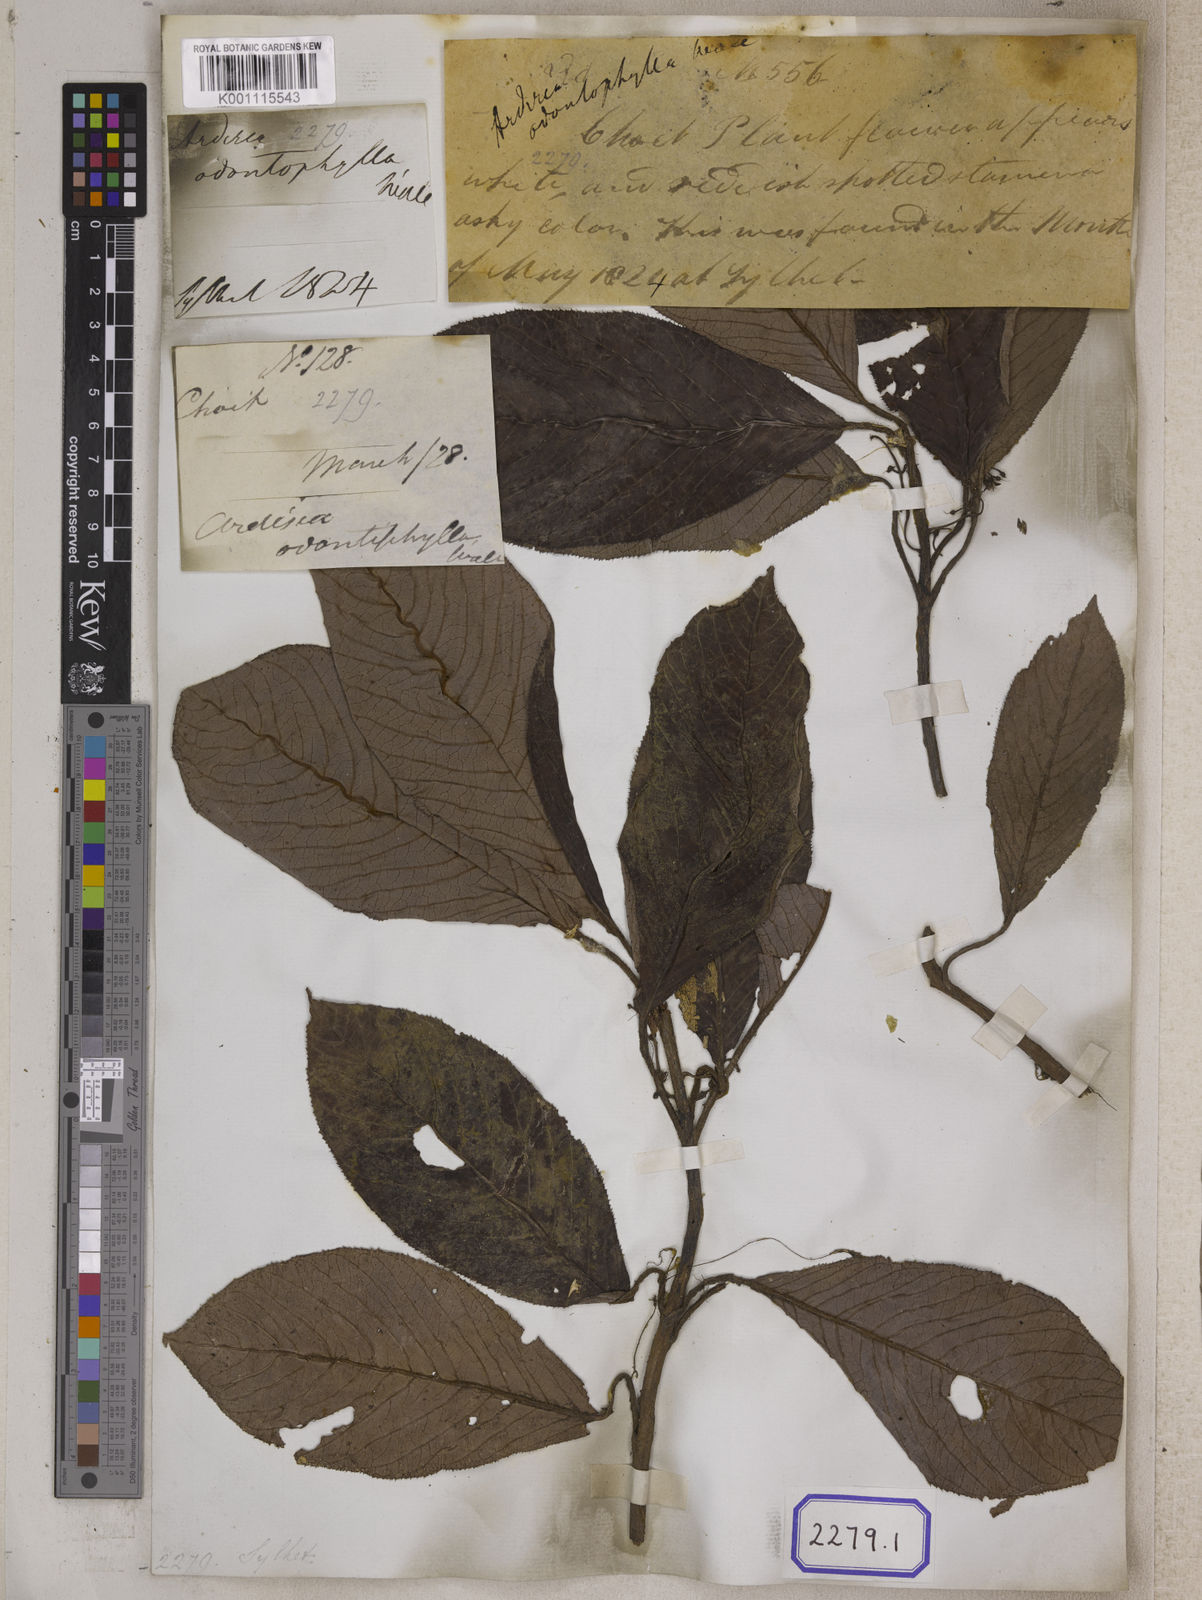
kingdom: Plantae
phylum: Tracheophyta
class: Magnoliopsida
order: Ericales
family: Primulaceae
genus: Ardisia
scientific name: Ardisia
